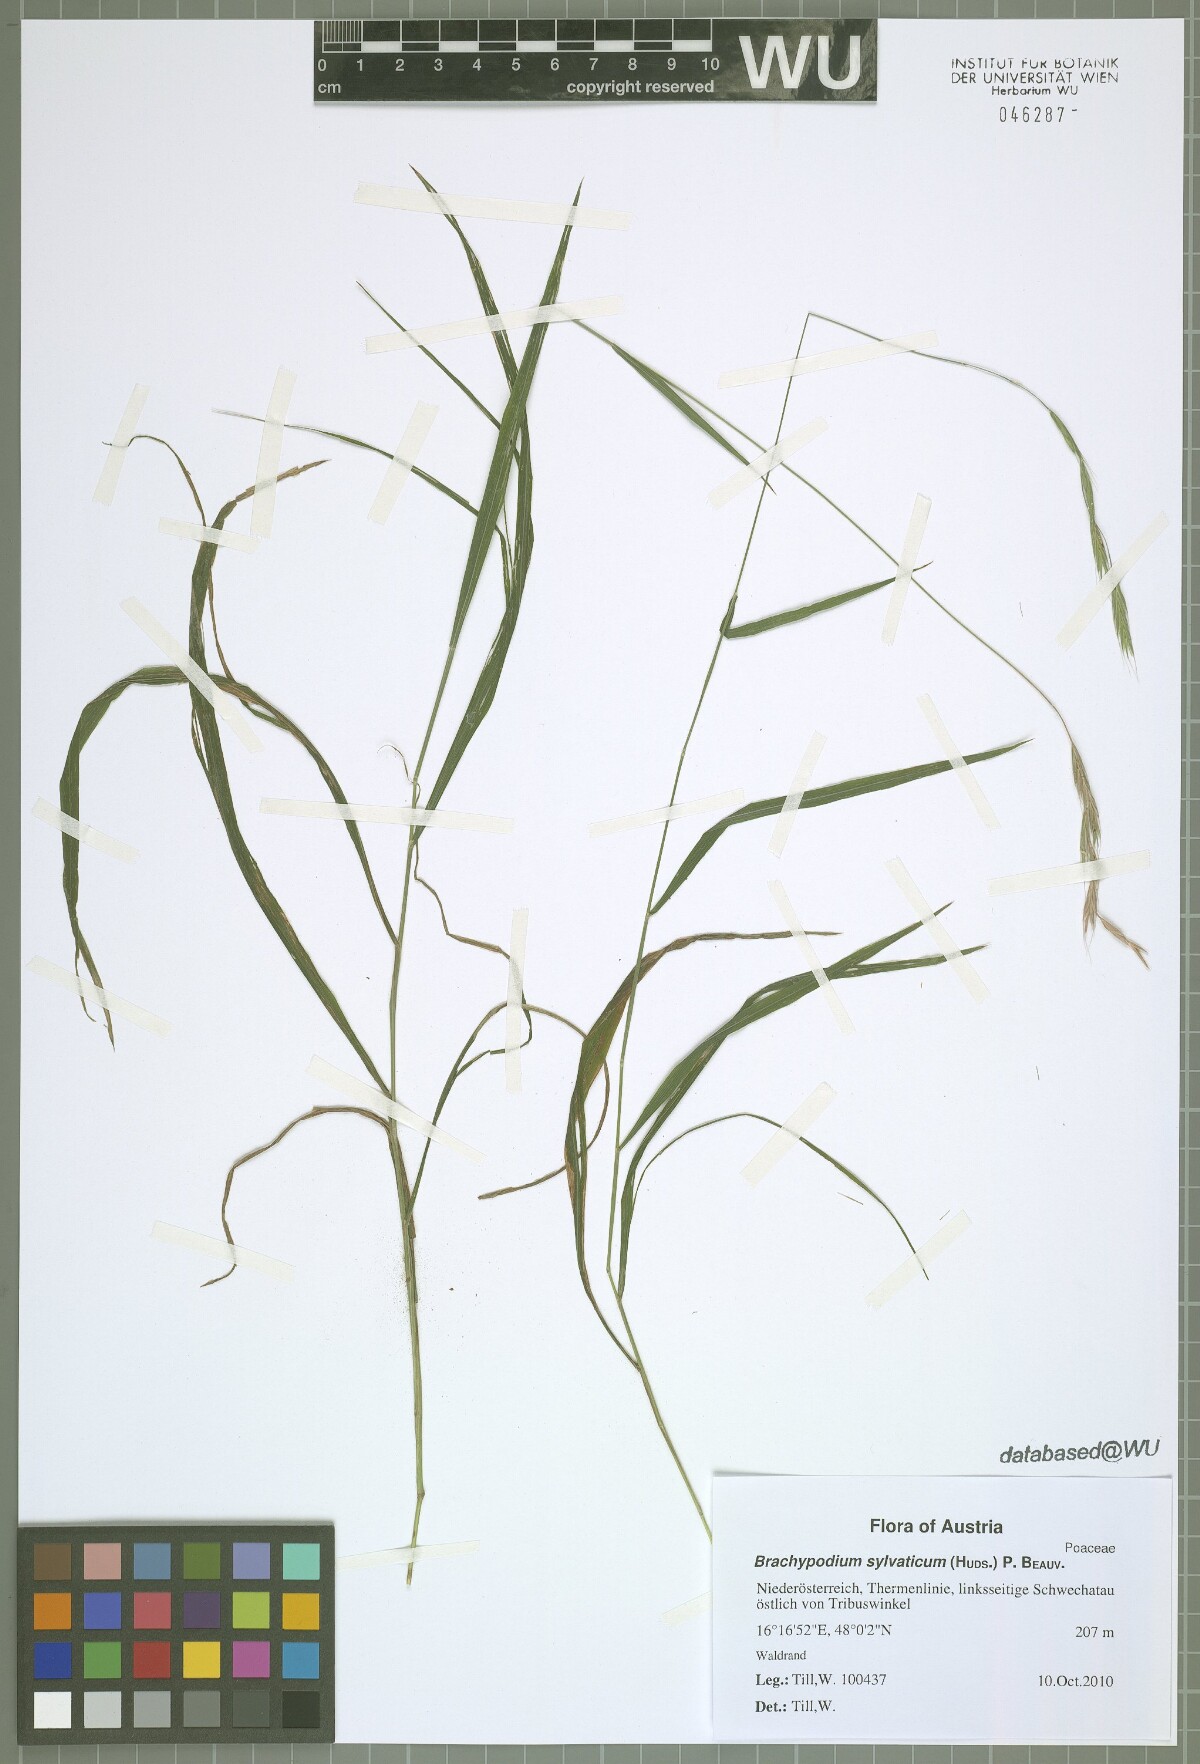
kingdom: Plantae
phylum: Tracheophyta
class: Liliopsida
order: Poales
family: Poaceae
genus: Brachypodium
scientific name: Brachypodium sylvaticum
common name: False-brome
